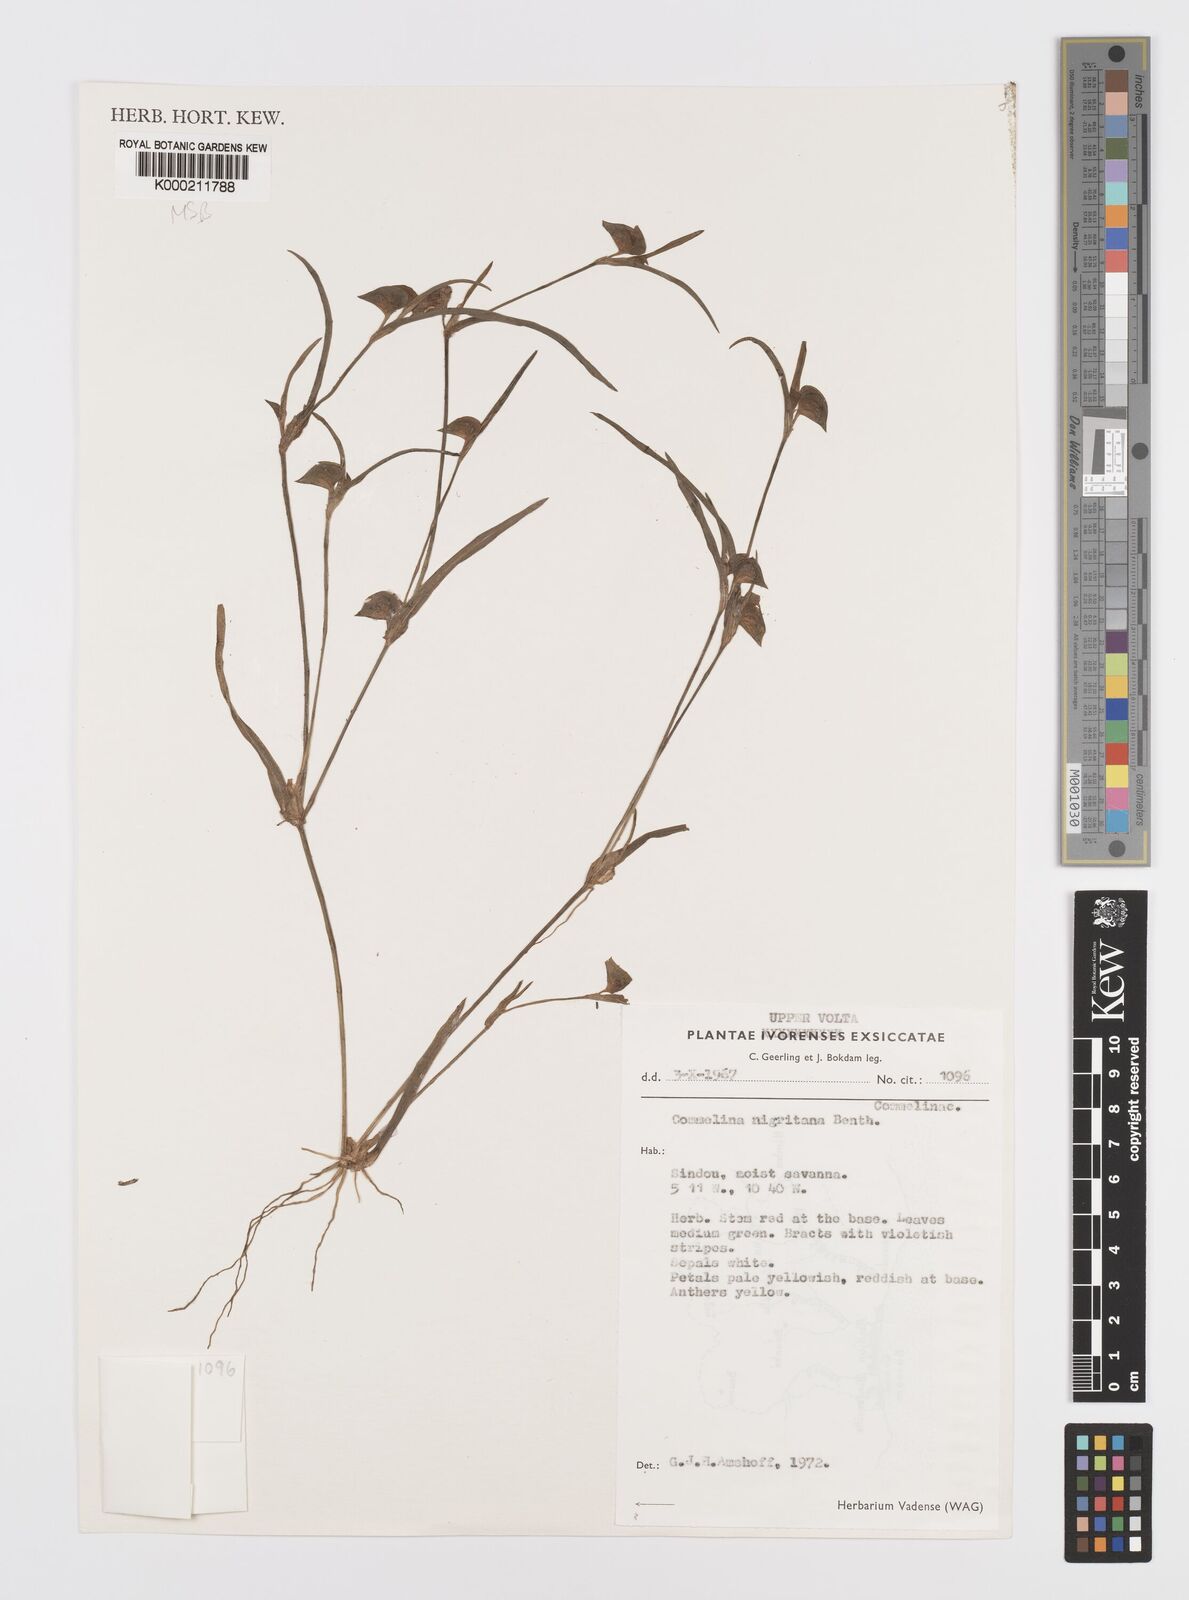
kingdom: Plantae
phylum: Tracheophyta
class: Liliopsida
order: Commelinales
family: Commelinaceae
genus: Commelina
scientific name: Commelina nigritana
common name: African dayflower
